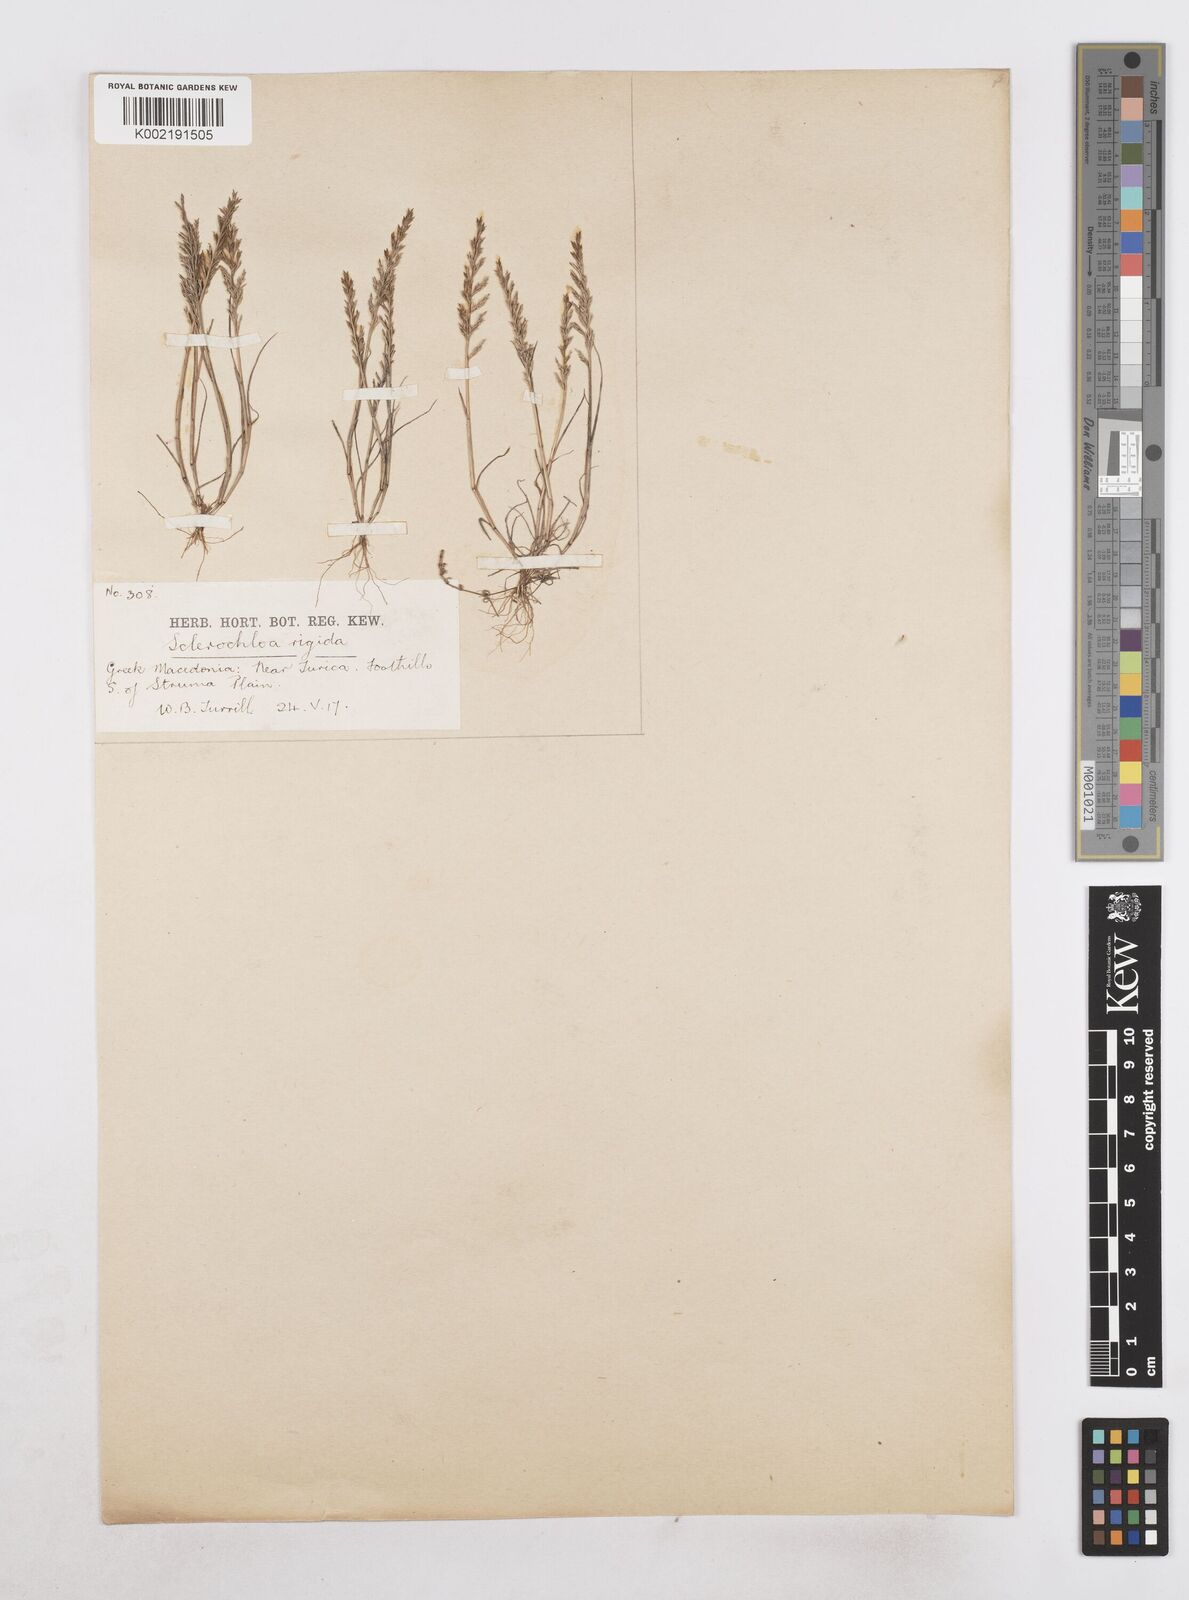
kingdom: Plantae
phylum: Tracheophyta
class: Liliopsida
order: Poales
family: Poaceae
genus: Catapodium
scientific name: Catapodium rigidum
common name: Fern-grass
